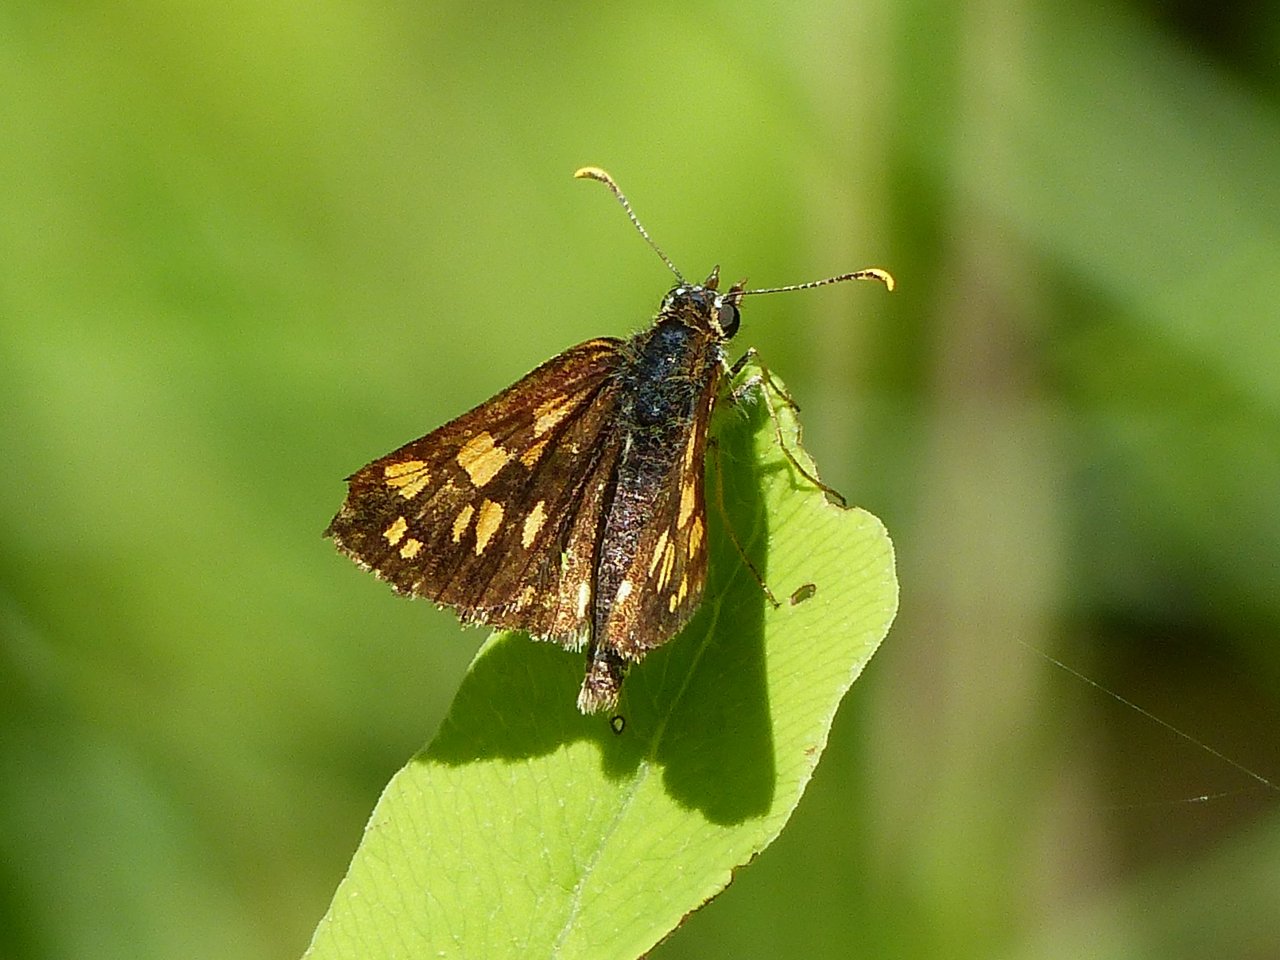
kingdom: Animalia
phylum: Arthropoda
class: Insecta
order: Lepidoptera
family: Hesperiidae
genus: Carterocephalus
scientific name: Carterocephalus palaemon
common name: Chequered Skipper
